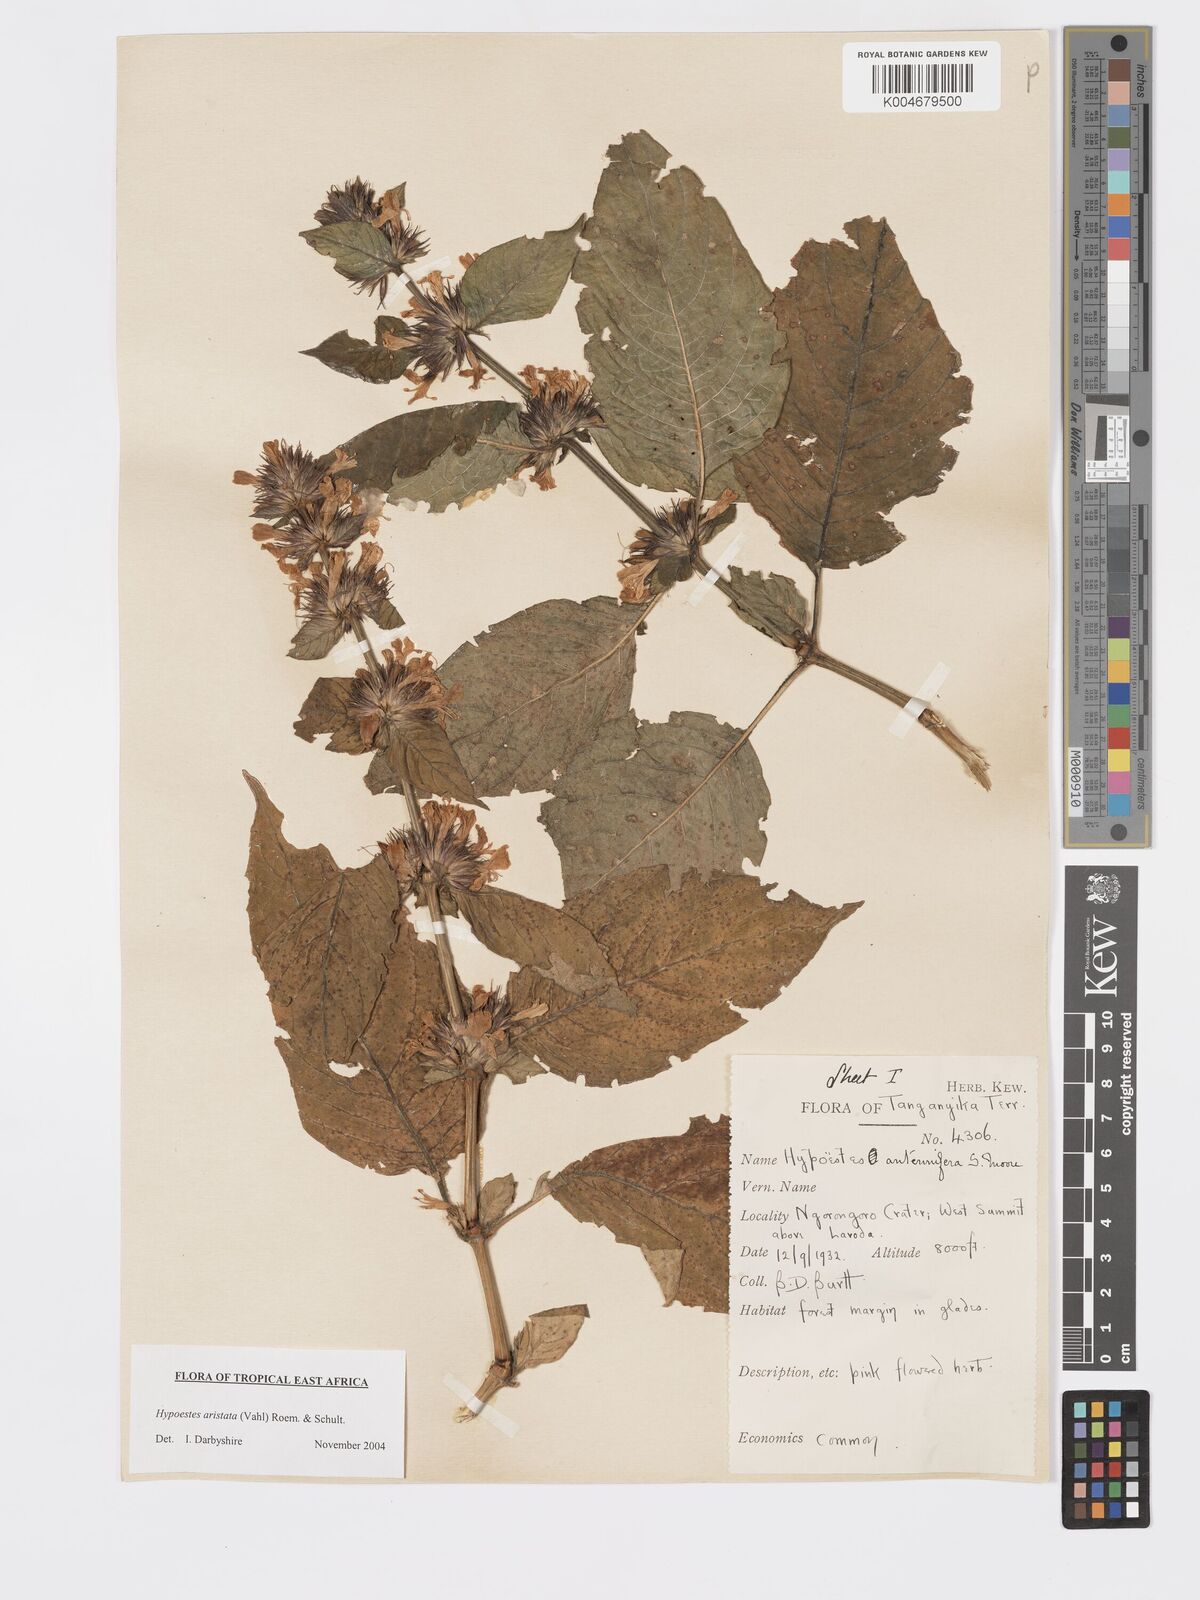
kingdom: Plantae
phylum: Tracheophyta
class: Magnoliopsida
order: Lamiales
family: Acanthaceae
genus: Hypoestes
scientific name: Hypoestes aristata
